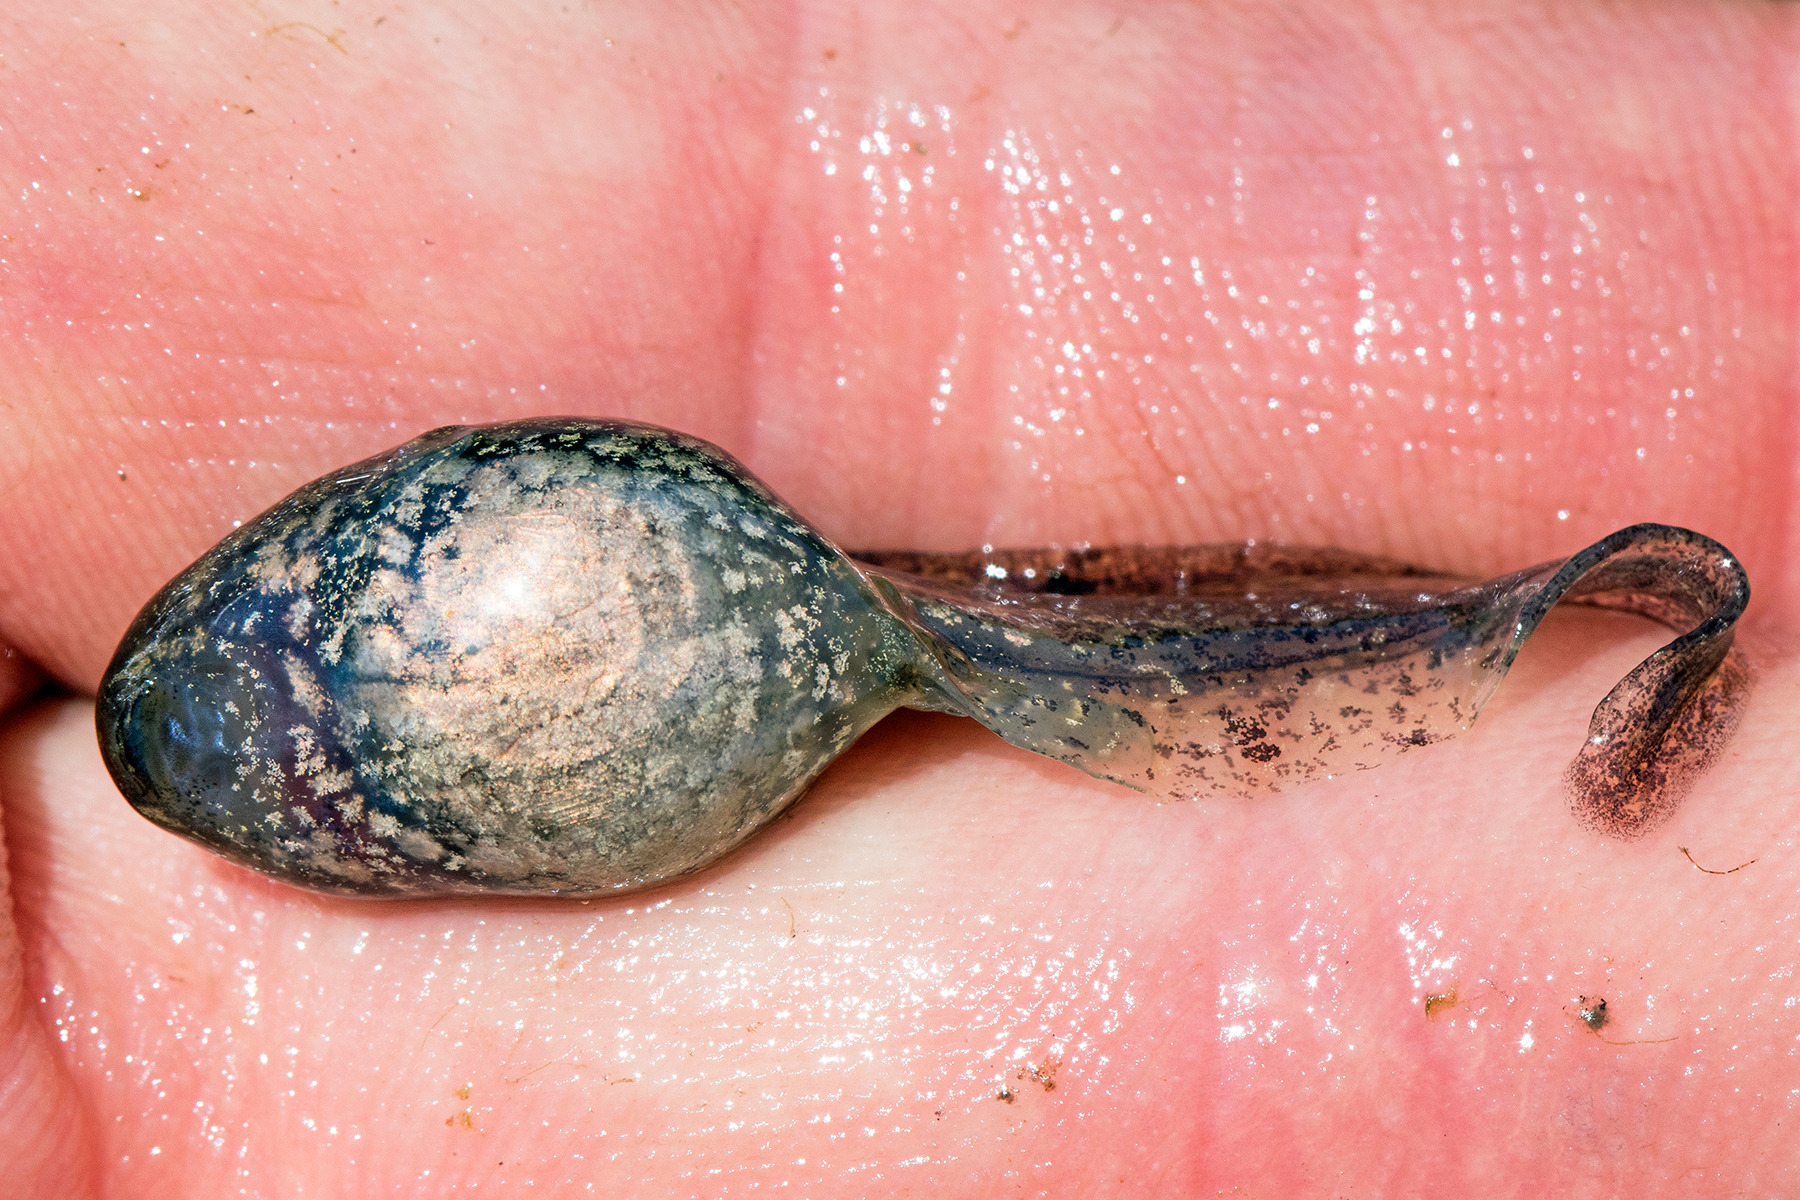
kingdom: Animalia
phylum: Chordata
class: Amphibia
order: Anura
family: Ranidae
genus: Rana
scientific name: Rana dalmatina
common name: Springfrø
